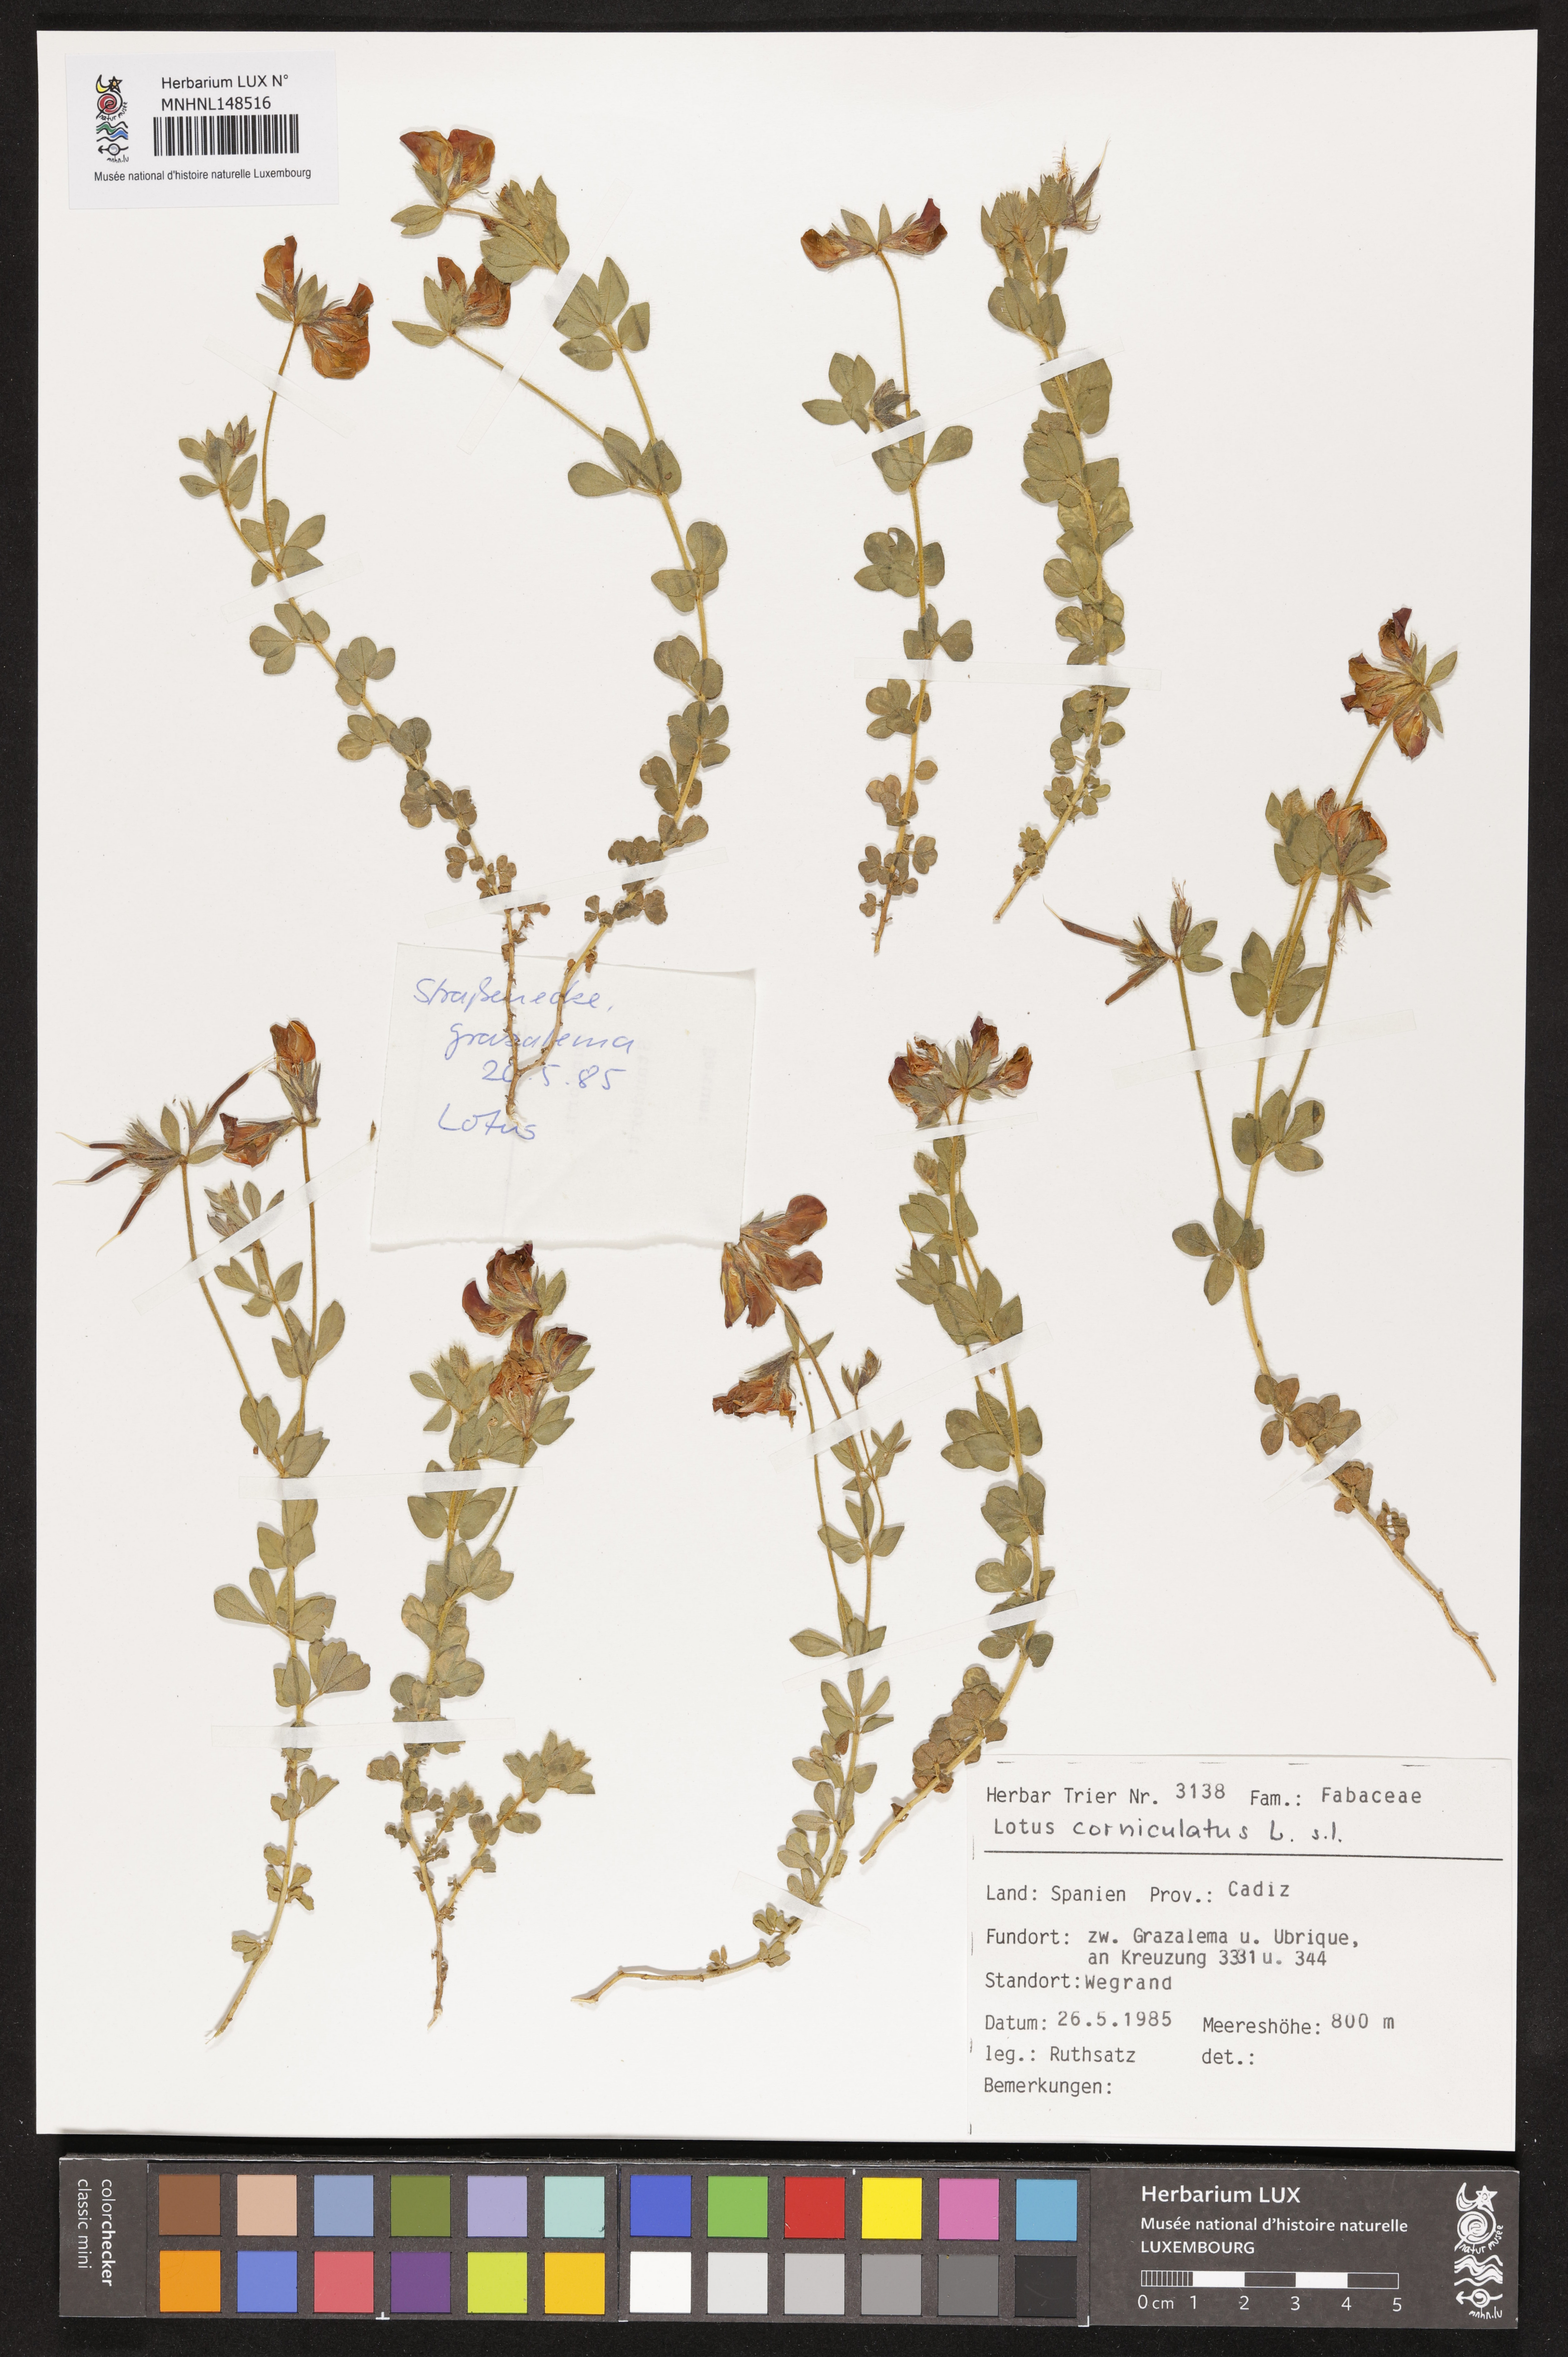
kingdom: Plantae
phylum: Tracheophyta
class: Magnoliopsida
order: Fabales
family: Fabaceae
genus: Lotus
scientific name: Lotus corniculatus
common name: Common bird's-foot-trefoil
